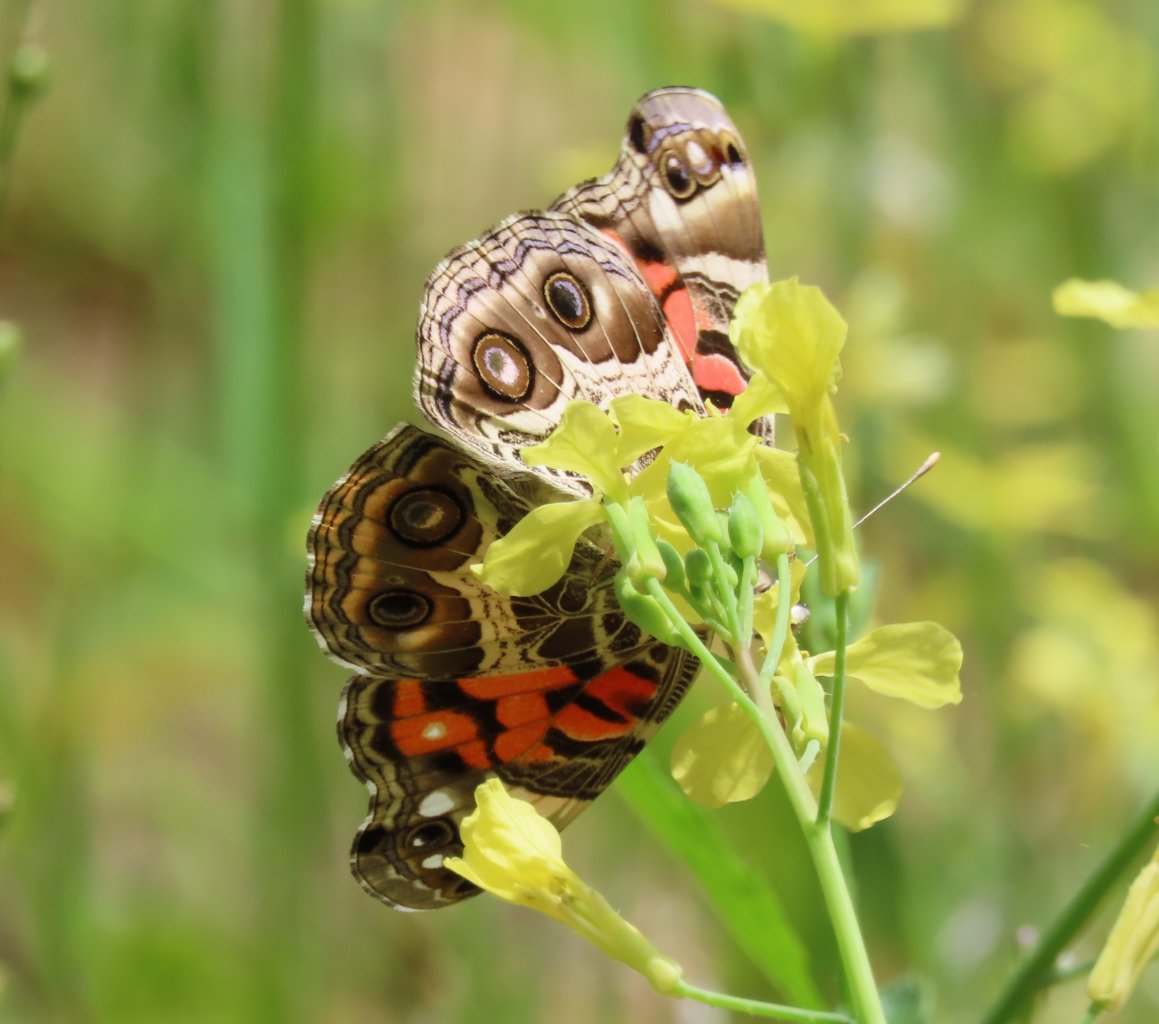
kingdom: Animalia
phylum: Arthropoda
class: Insecta
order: Lepidoptera
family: Nymphalidae
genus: Vanessa
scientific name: Vanessa virginiensis
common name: American Lady
